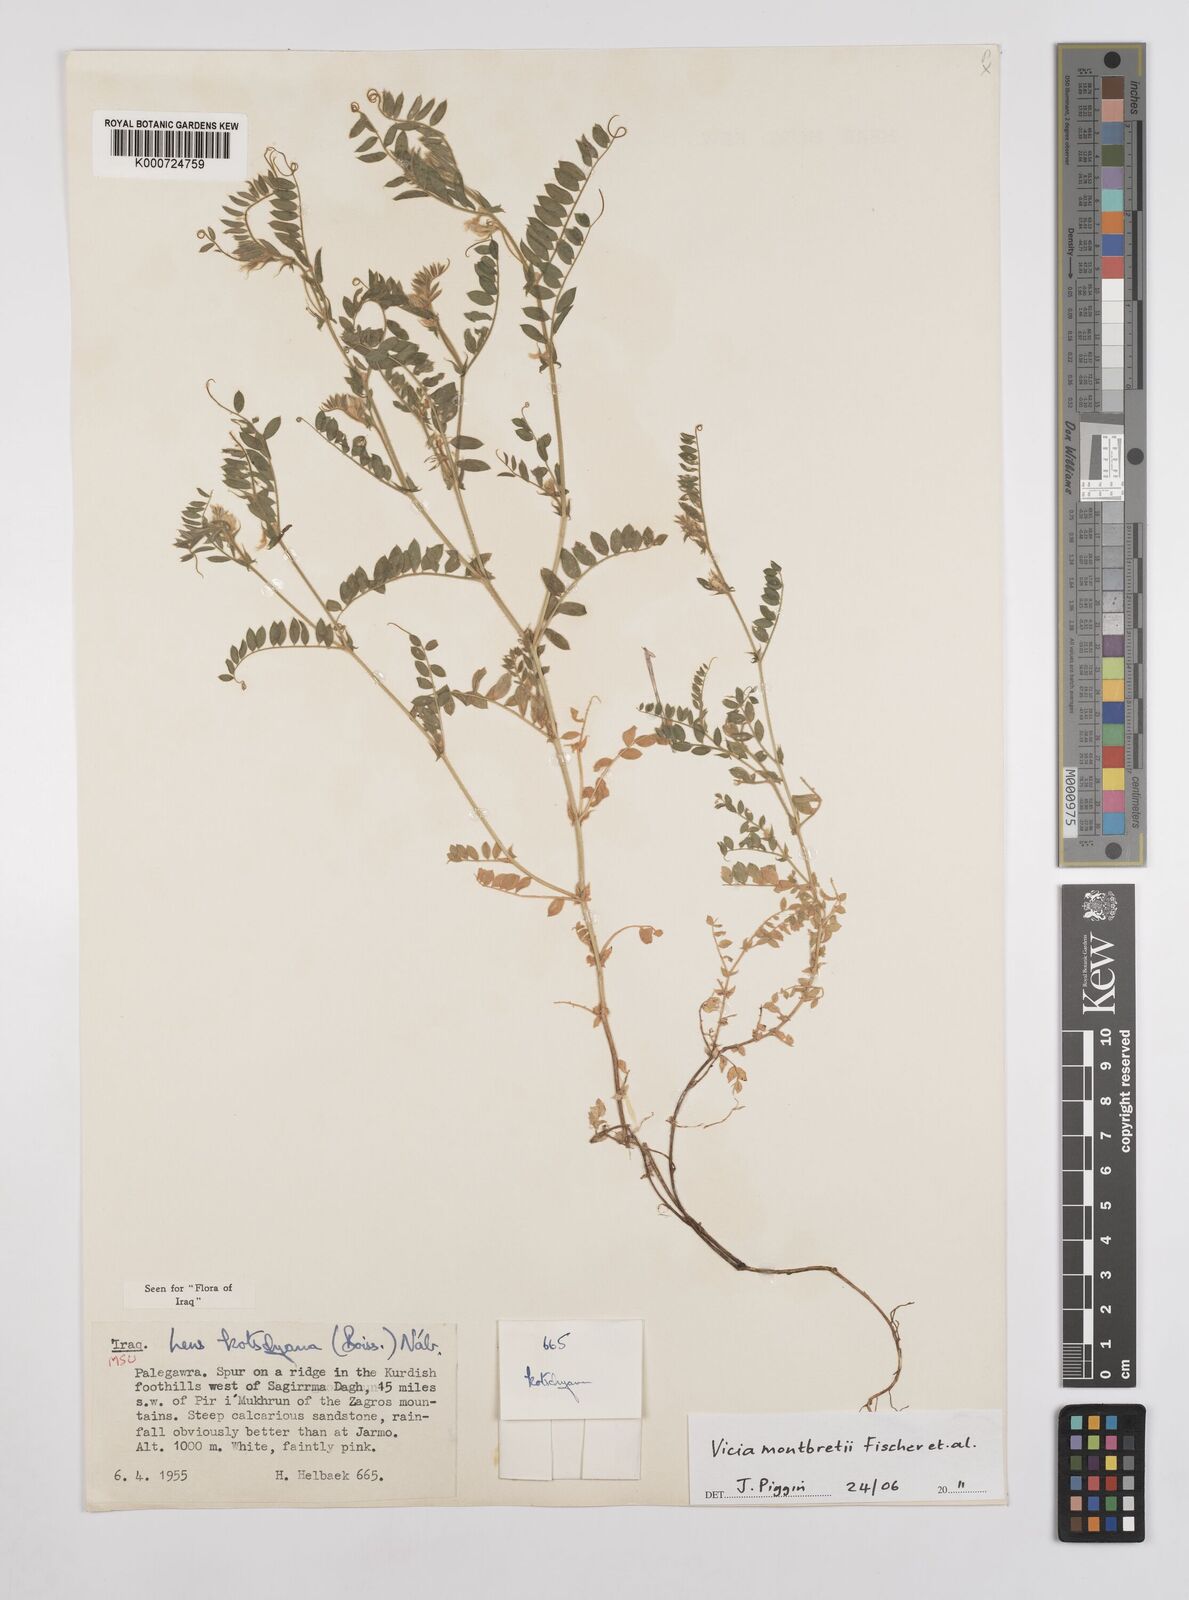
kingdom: Plantae
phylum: Tracheophyta
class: Magnoliopsida
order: Fabales
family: Fabaceae
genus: Vicia
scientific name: Vicia montbretii
